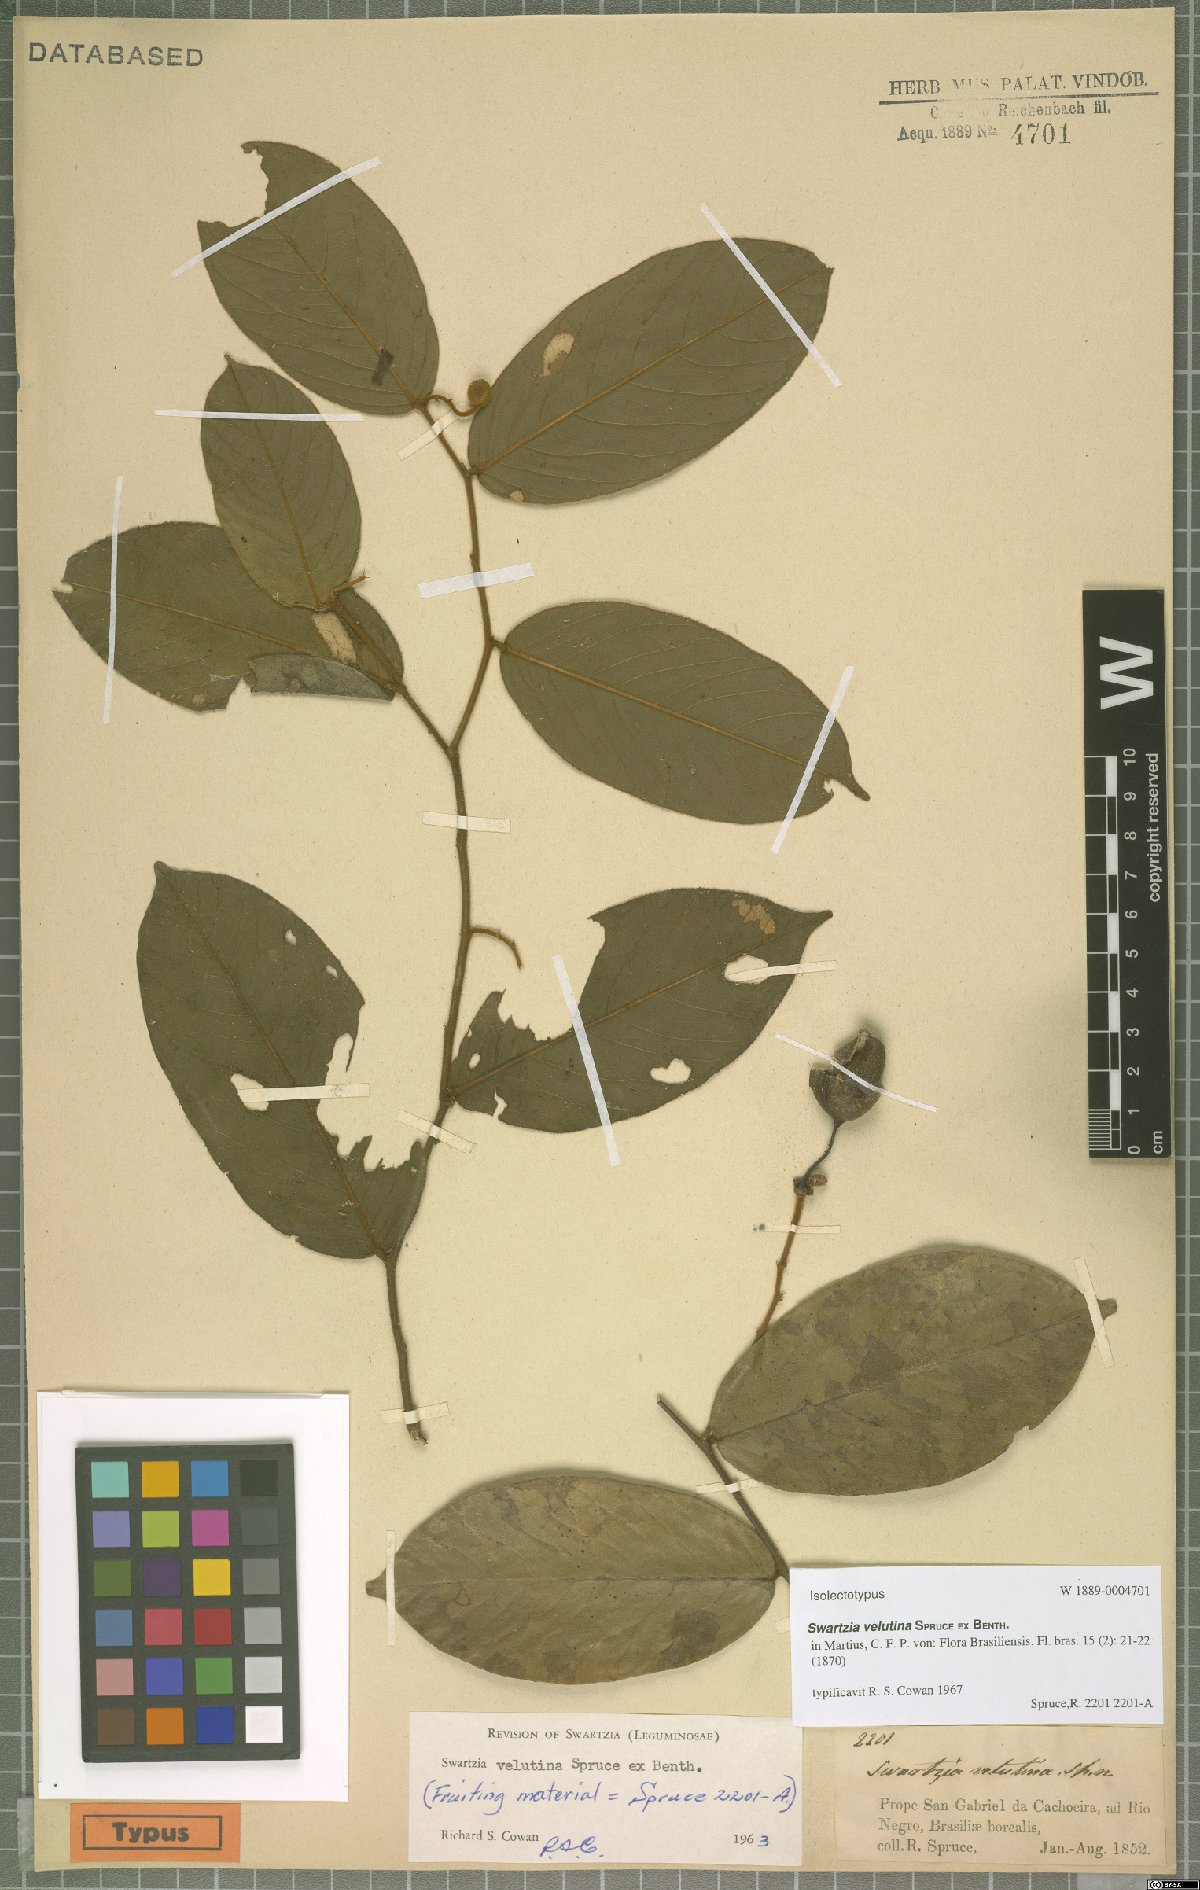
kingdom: Plantae
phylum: Tracheophyta
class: Magnoliopsida
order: Fabales
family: Fabaceae
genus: Swartzia
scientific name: Swartzia velutina
